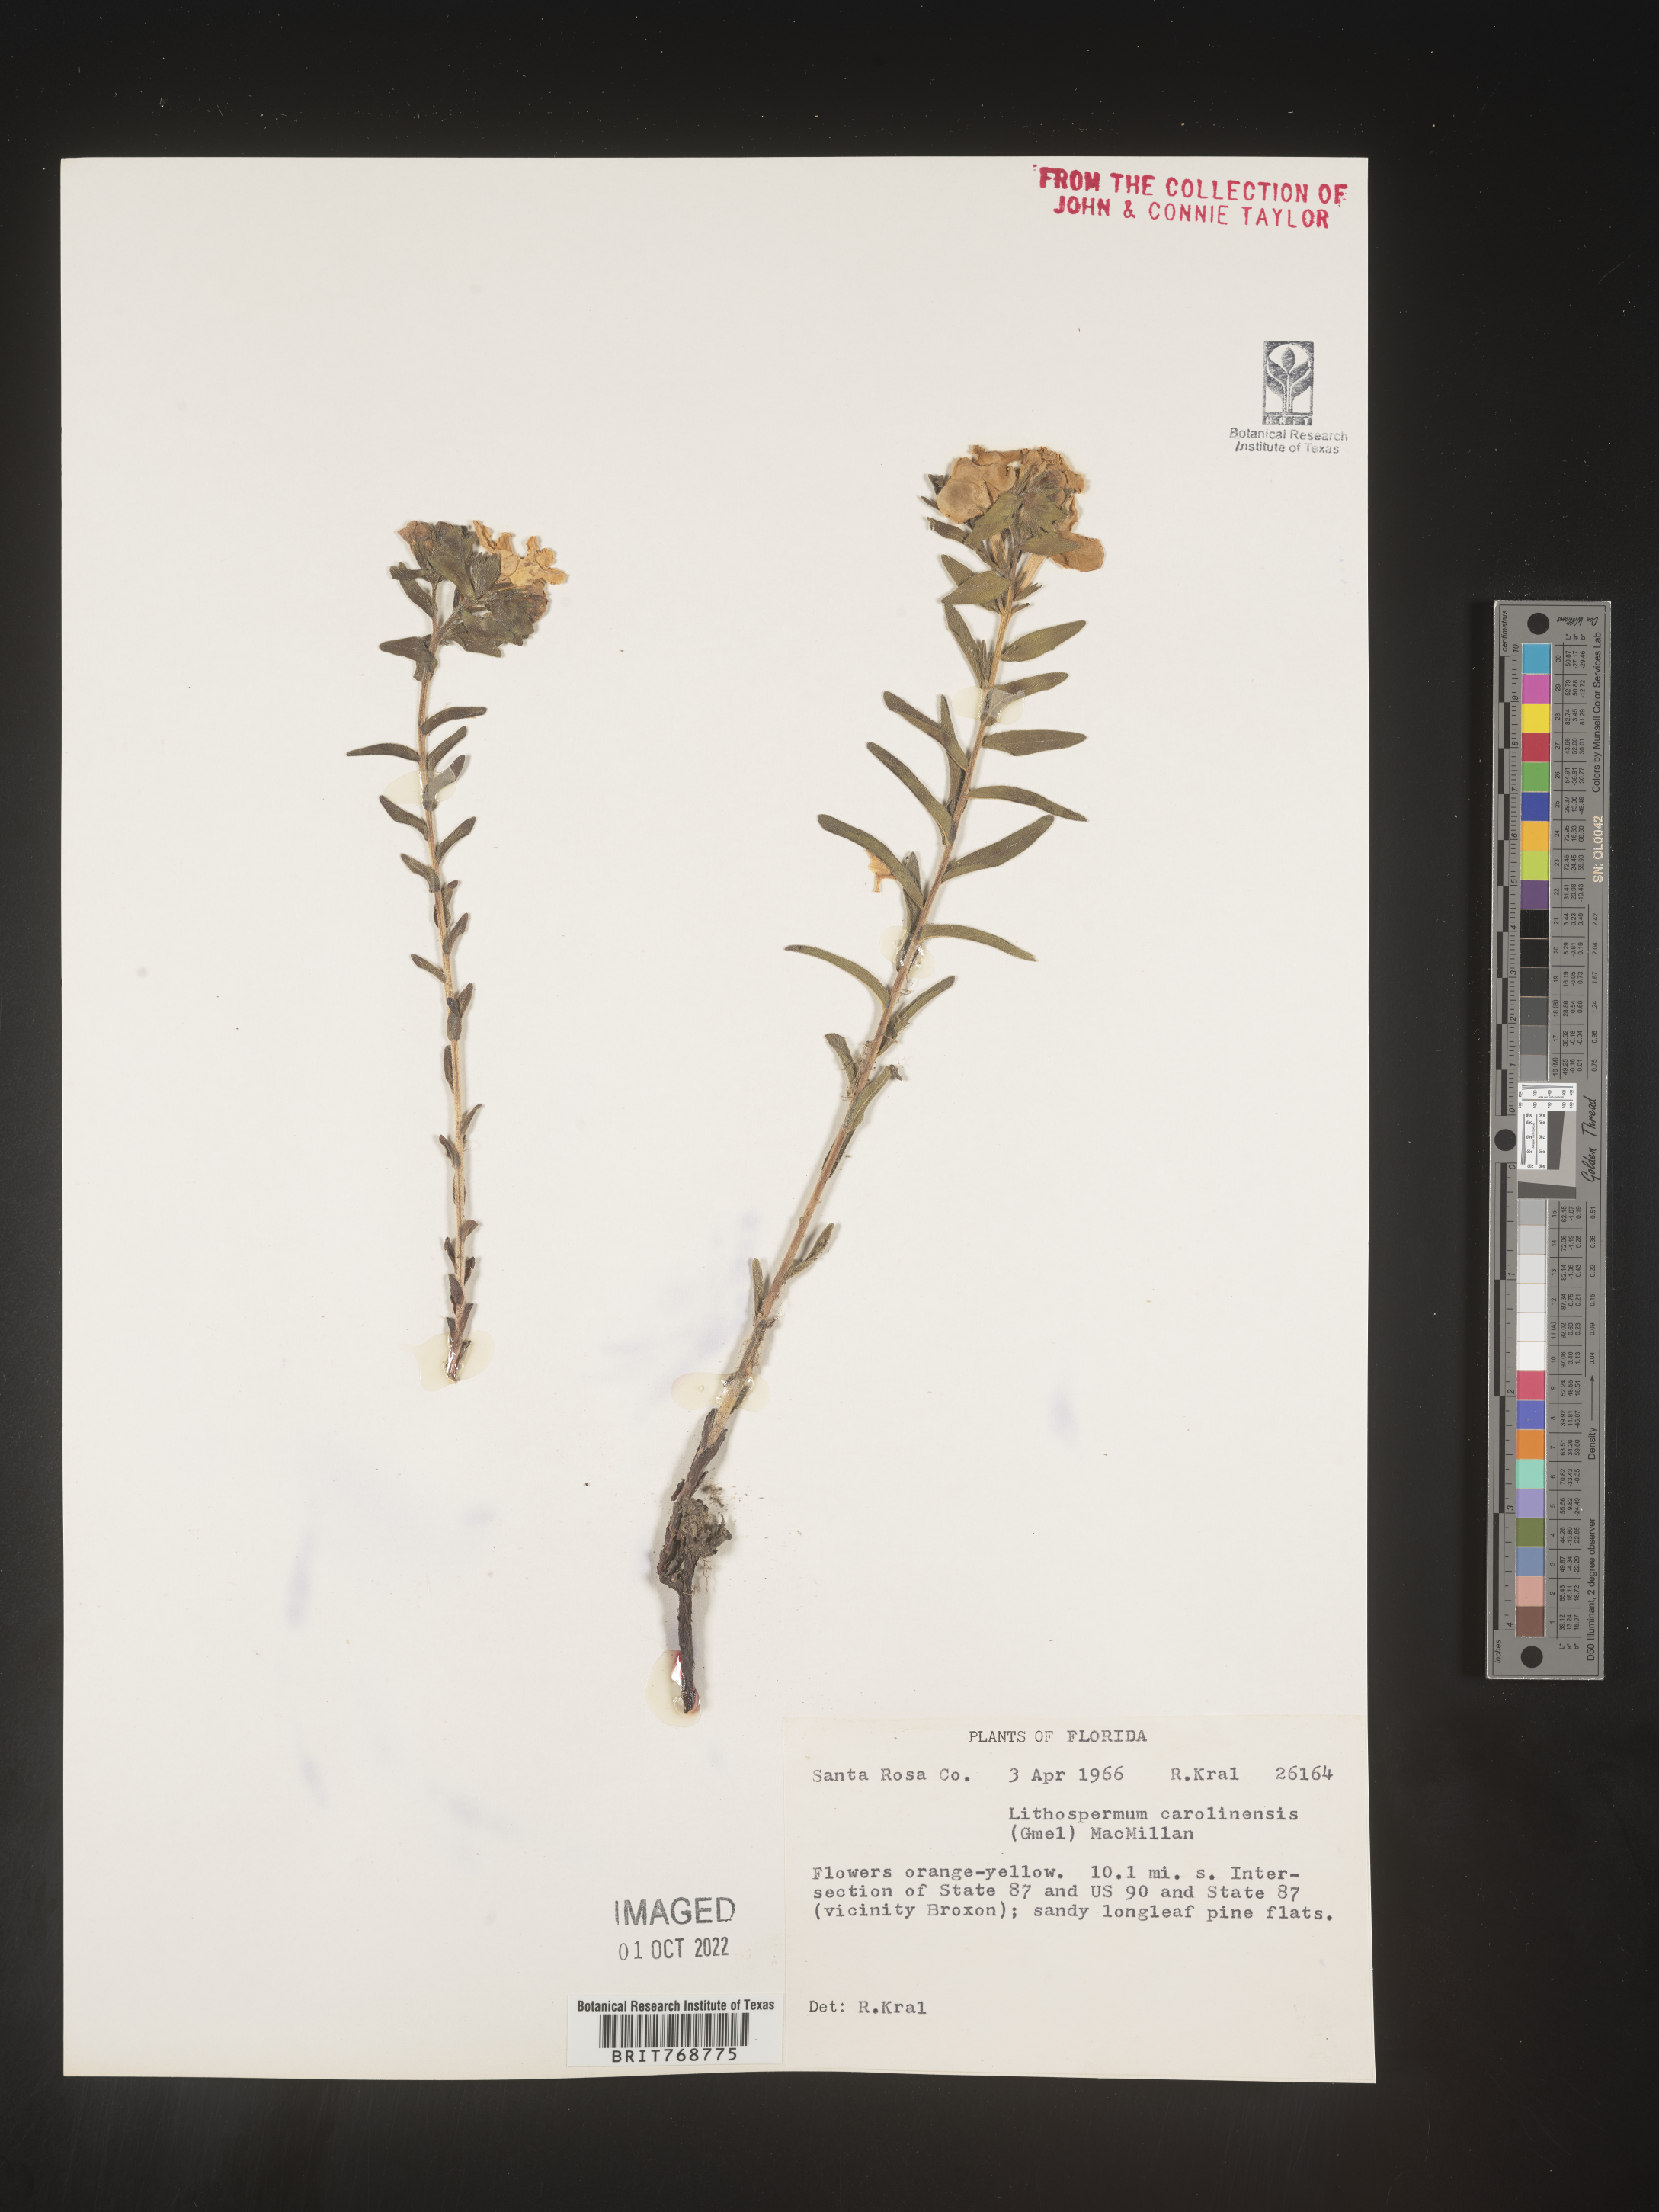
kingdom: Plantae
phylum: Tracheophyta
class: Magnoliopsida
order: Boraginales
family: Boraginaceae
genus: Lithospermum
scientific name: Lithospermum caroliniense
